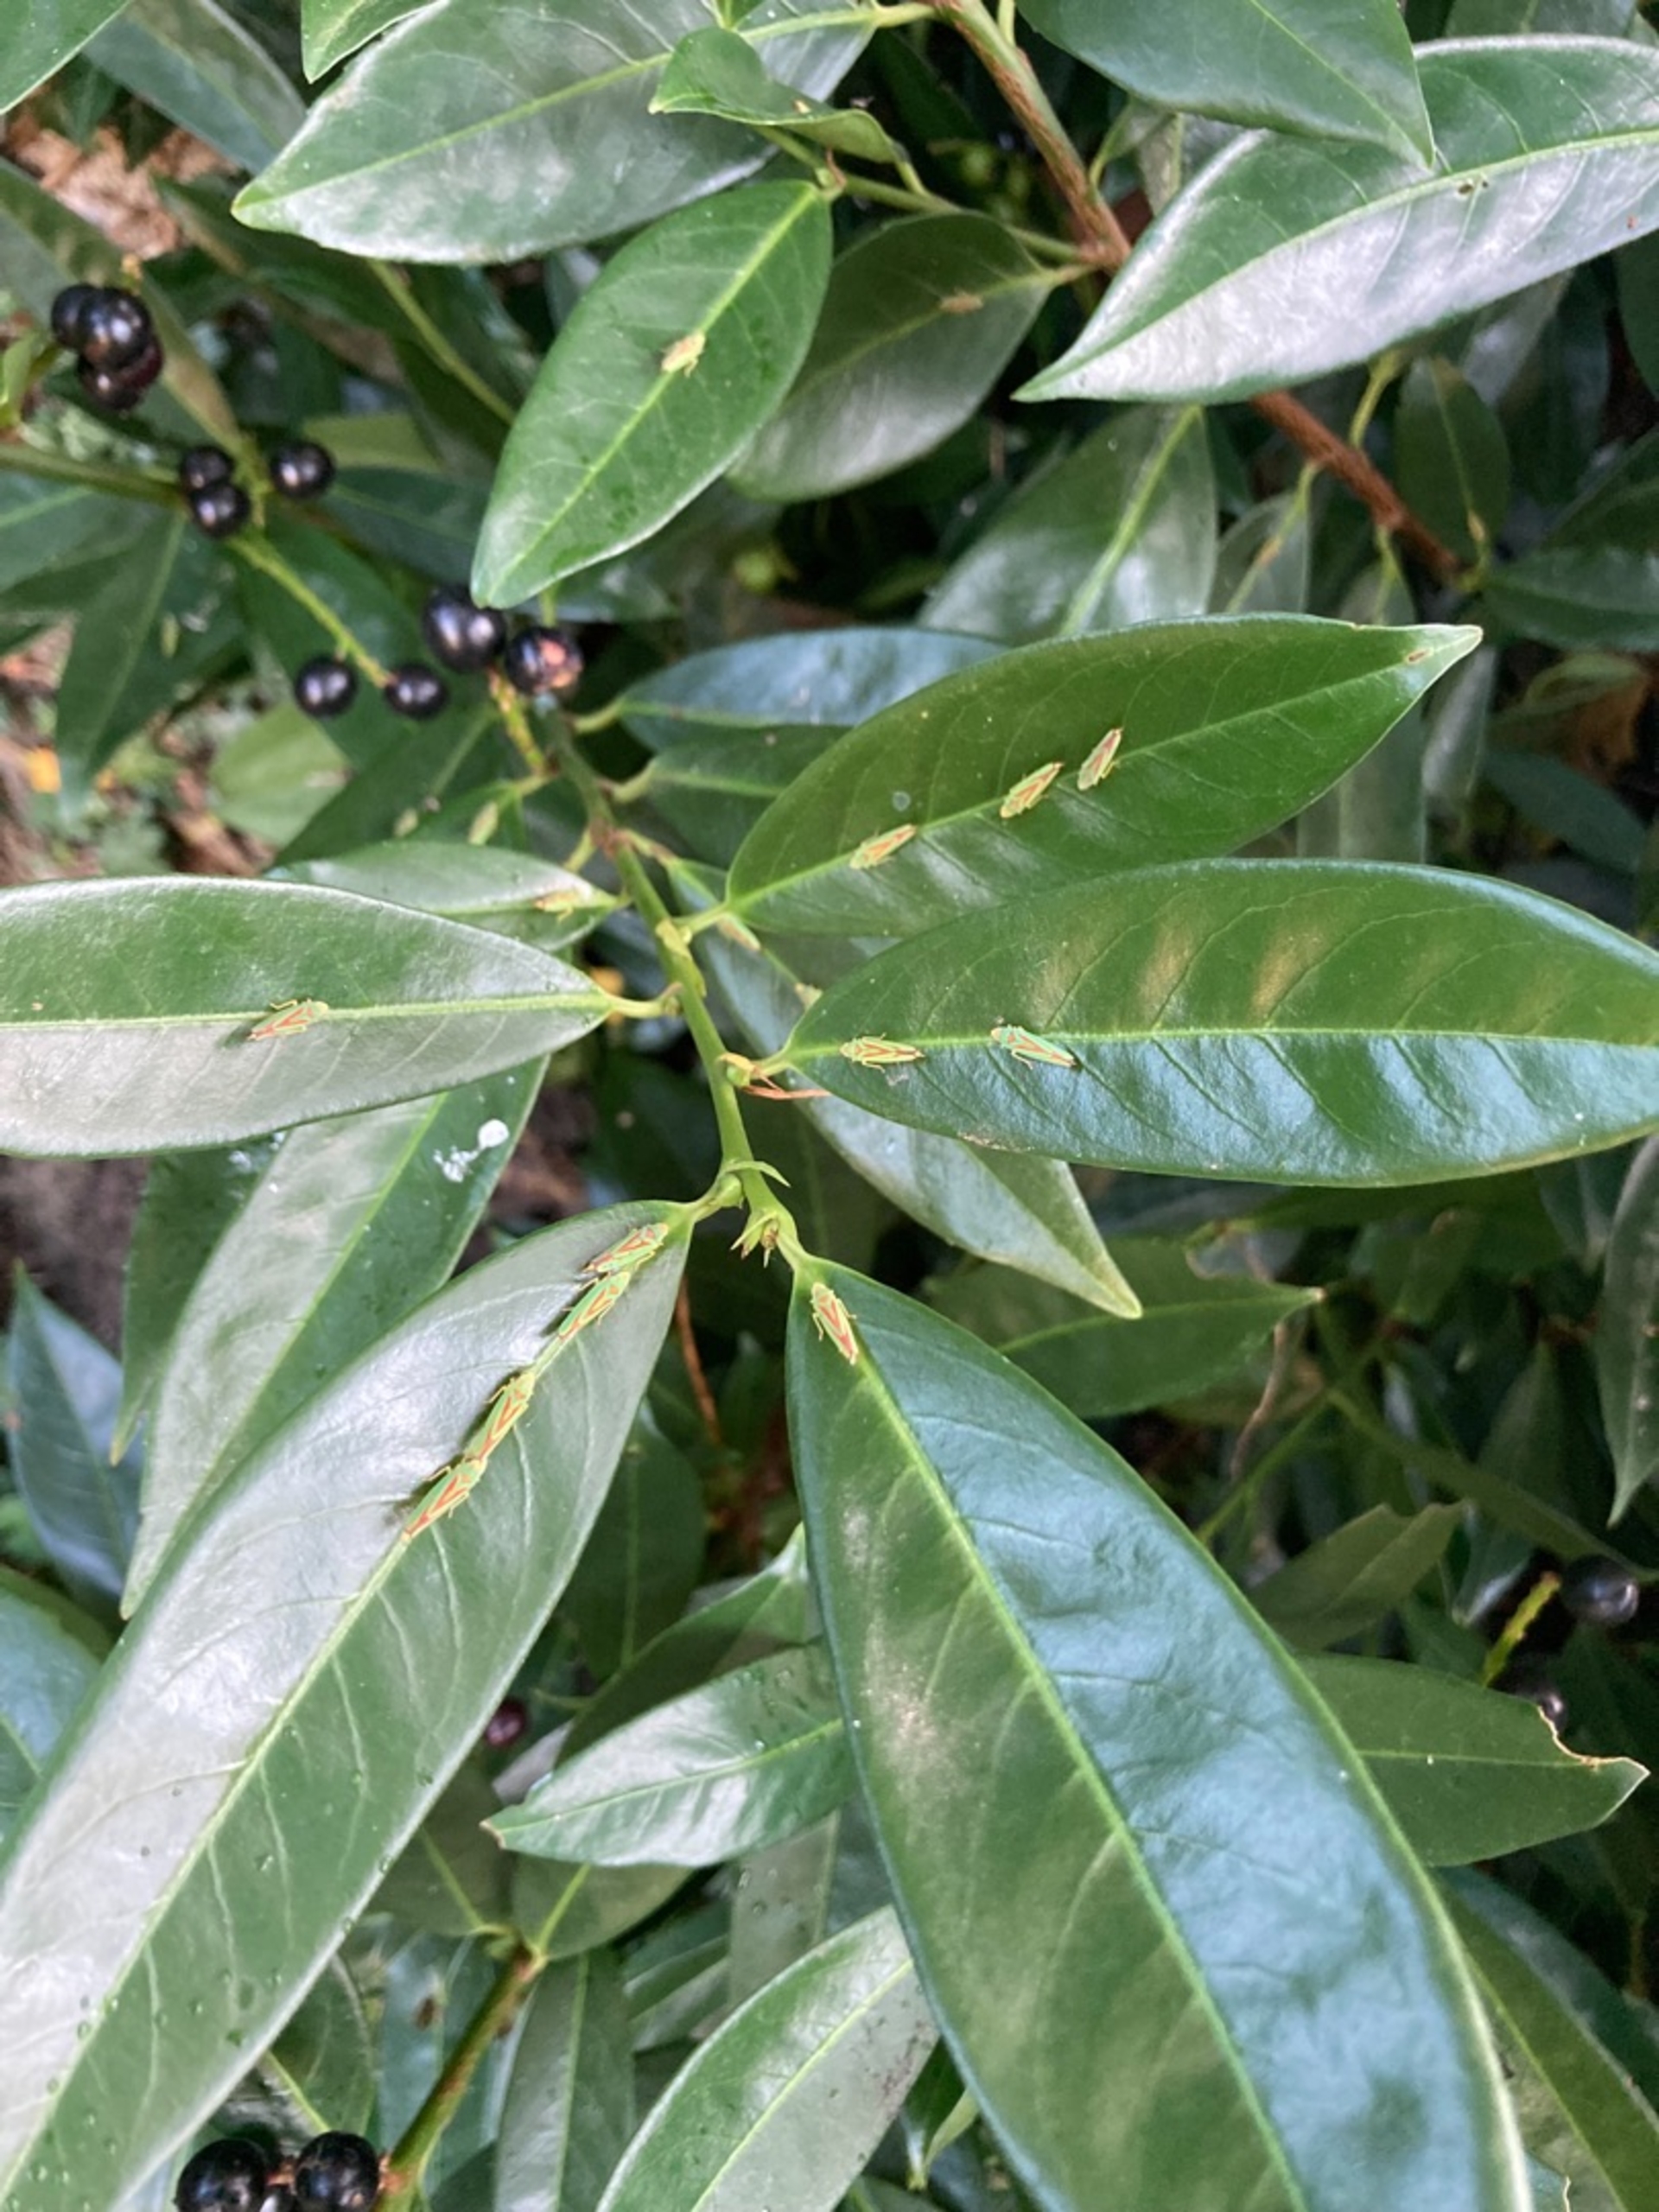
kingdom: Animalia
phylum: Arthropoda
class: Insecta
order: Hemiptera
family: Cicadellidae
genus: Graphocephala
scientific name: Graphocephala fennahi
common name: Rododendroncikade
